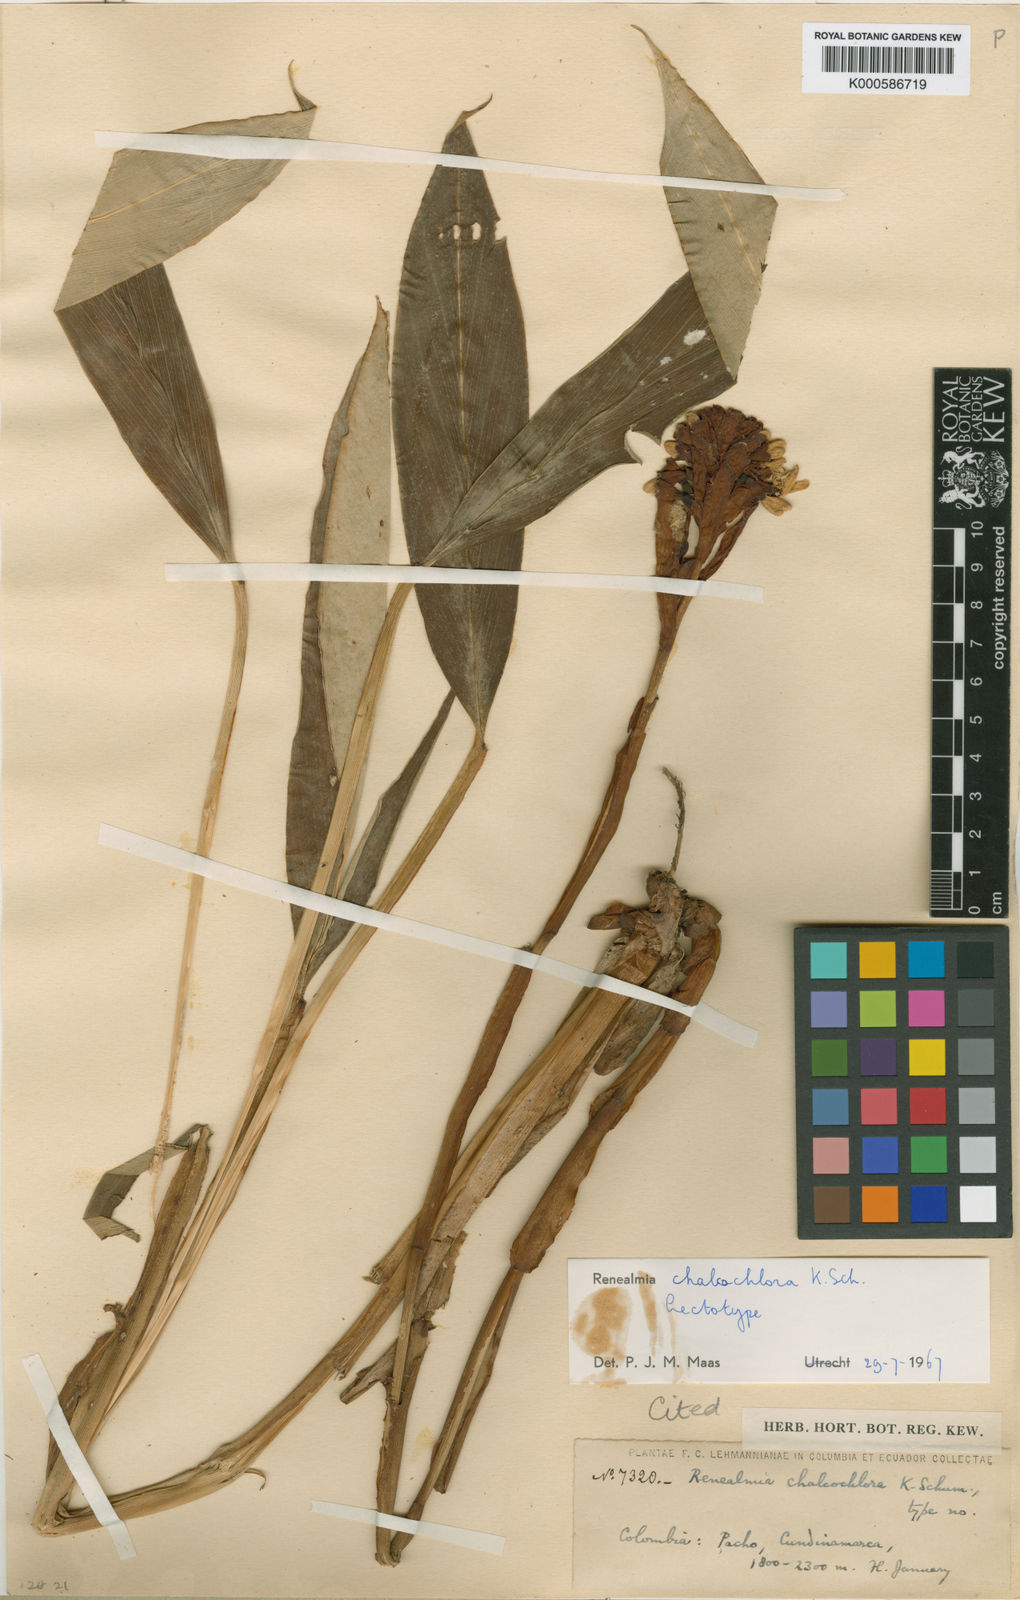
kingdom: Plantae
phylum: Tracheophyta
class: Liliopsida
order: Zingiberales
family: Zingiberaceae
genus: Renealmia
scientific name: Renealmia chalcochlora
